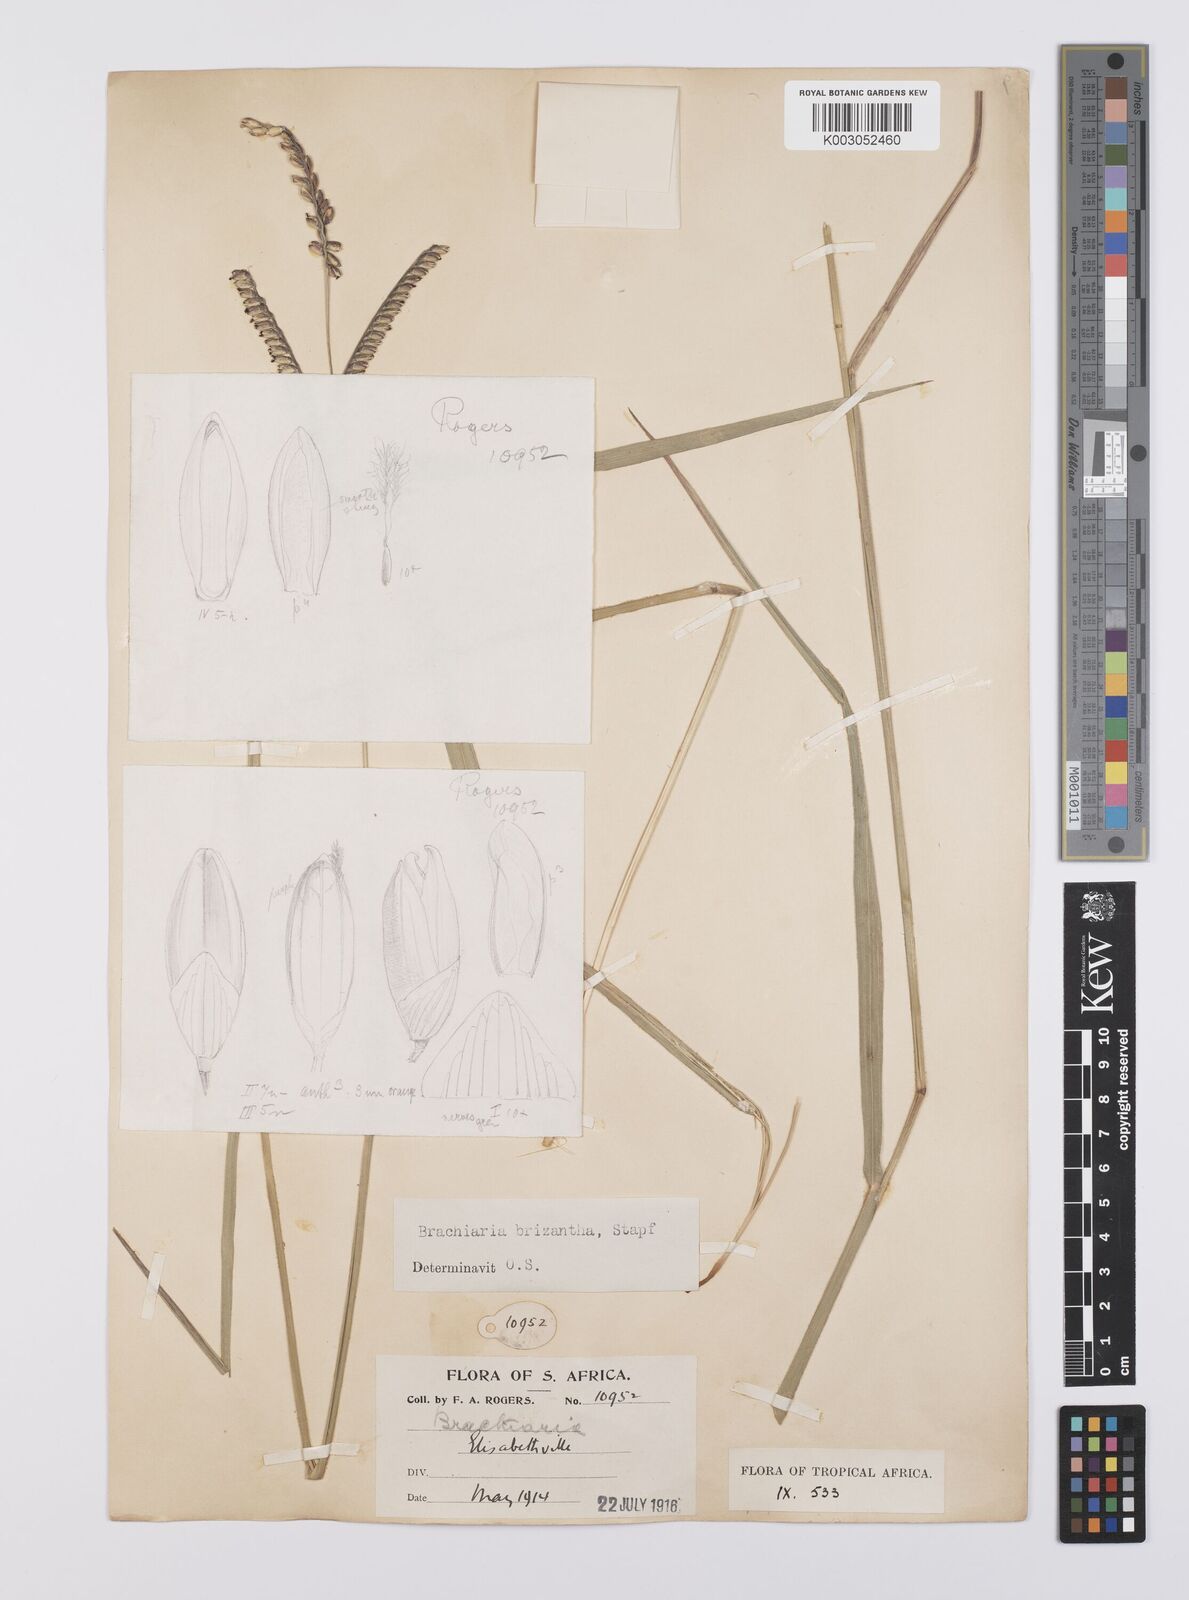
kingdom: Plantae
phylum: Tracheophyta
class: Liliopsida
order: Poales
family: Poaceae
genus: Urochloa
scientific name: Urochloa brizantha
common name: Palisade signalgrass
